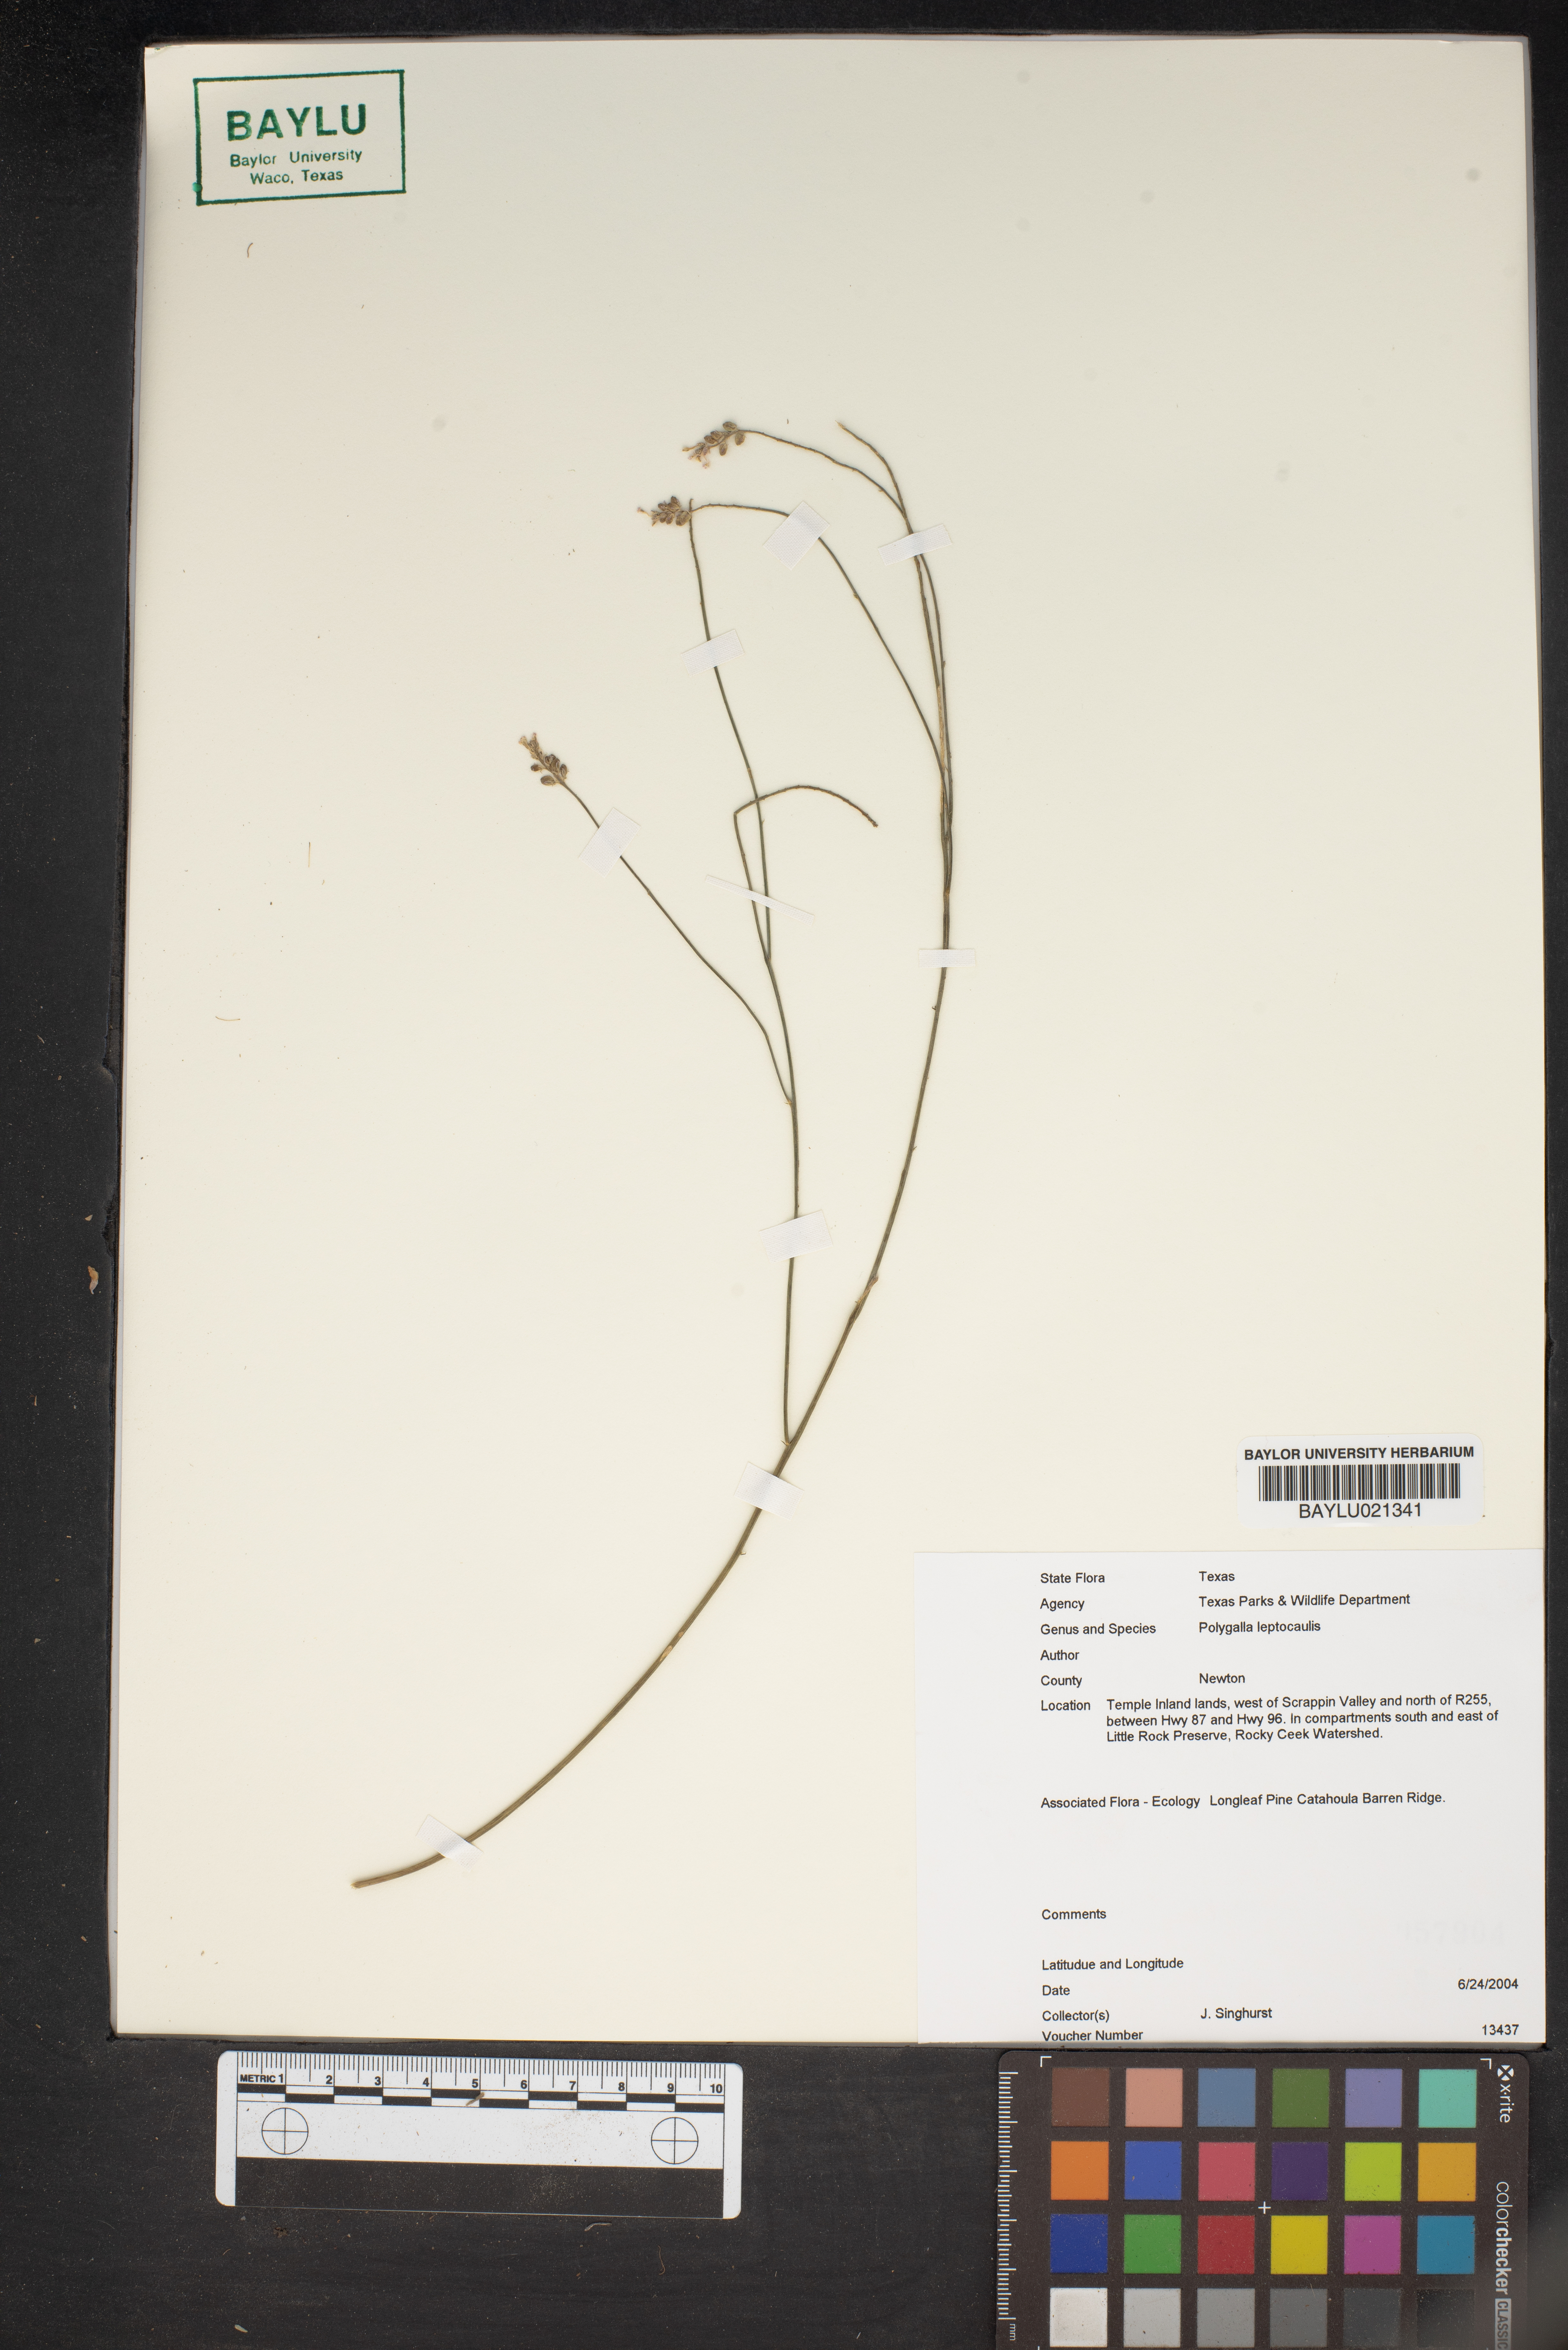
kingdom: Plantae
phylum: Tracheophyta
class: Magnoliopsida
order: Fabales
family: Polygalaceae
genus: Polygala
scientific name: Polygala tenella
